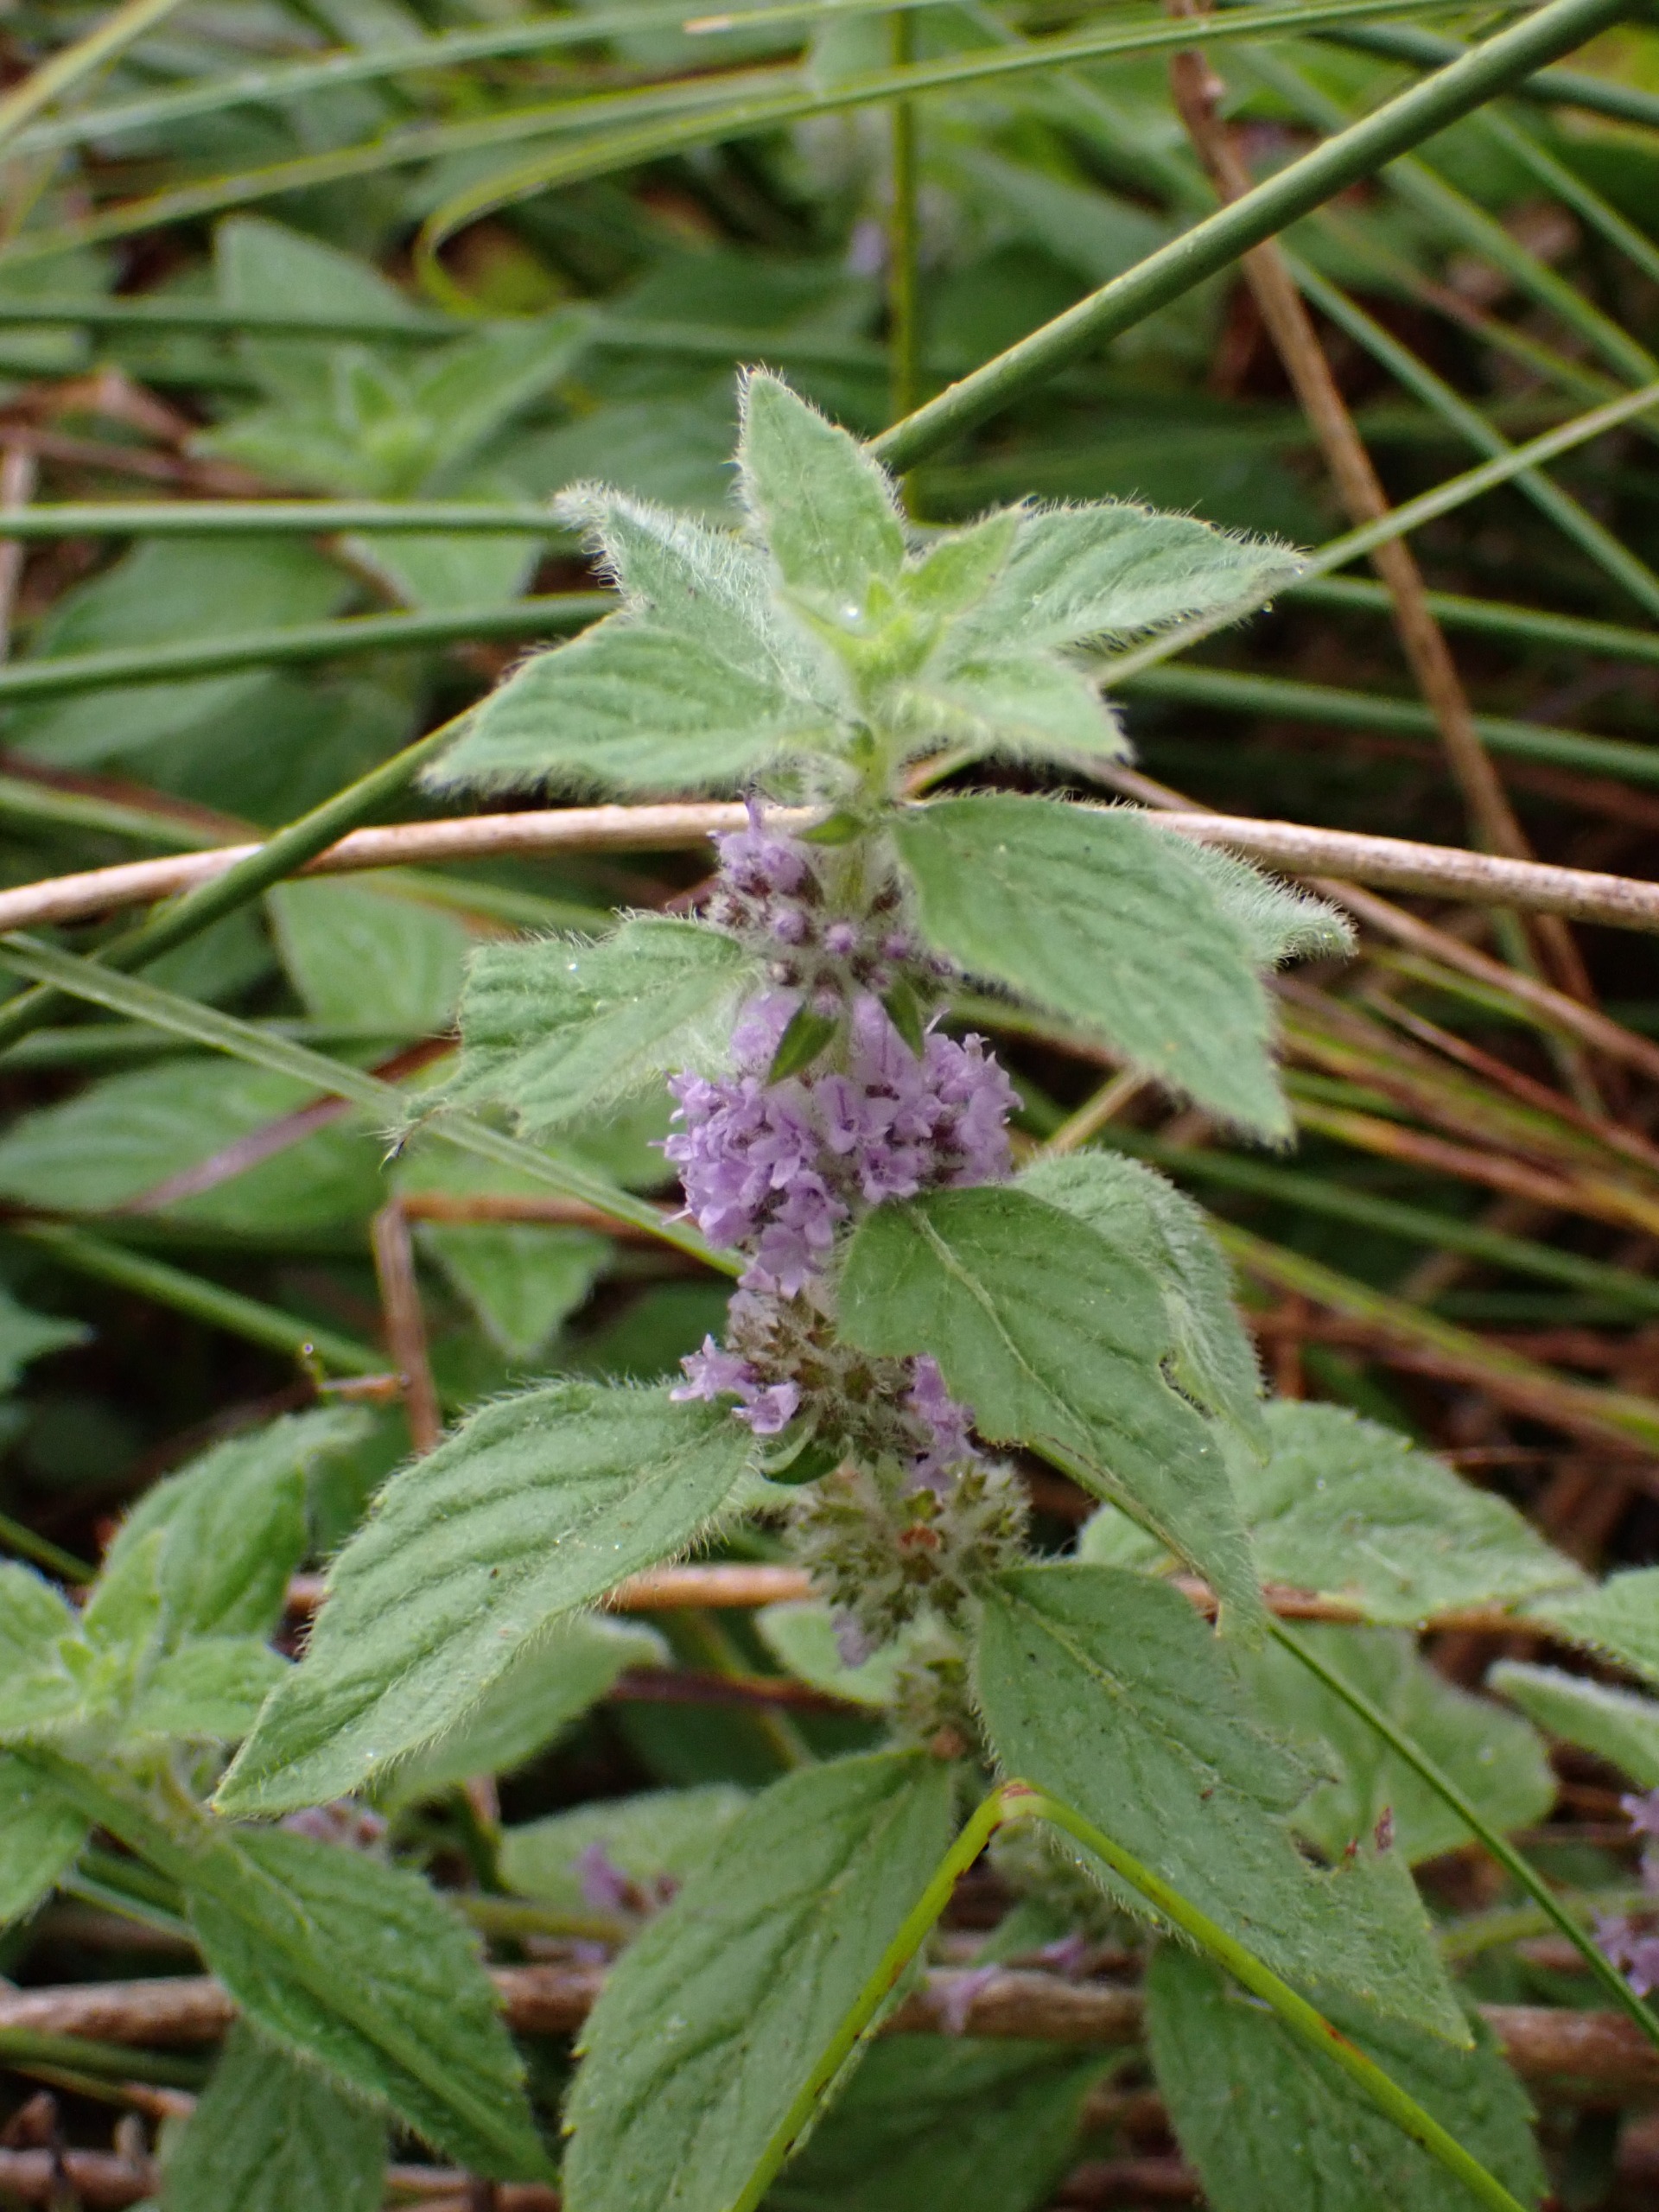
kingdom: Plantae
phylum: Tracheophyta
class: Magnoliopsida
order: Lamiales
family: Lamiaceae
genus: Mentha
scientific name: Mentha arvensis
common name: Ager-mynte
